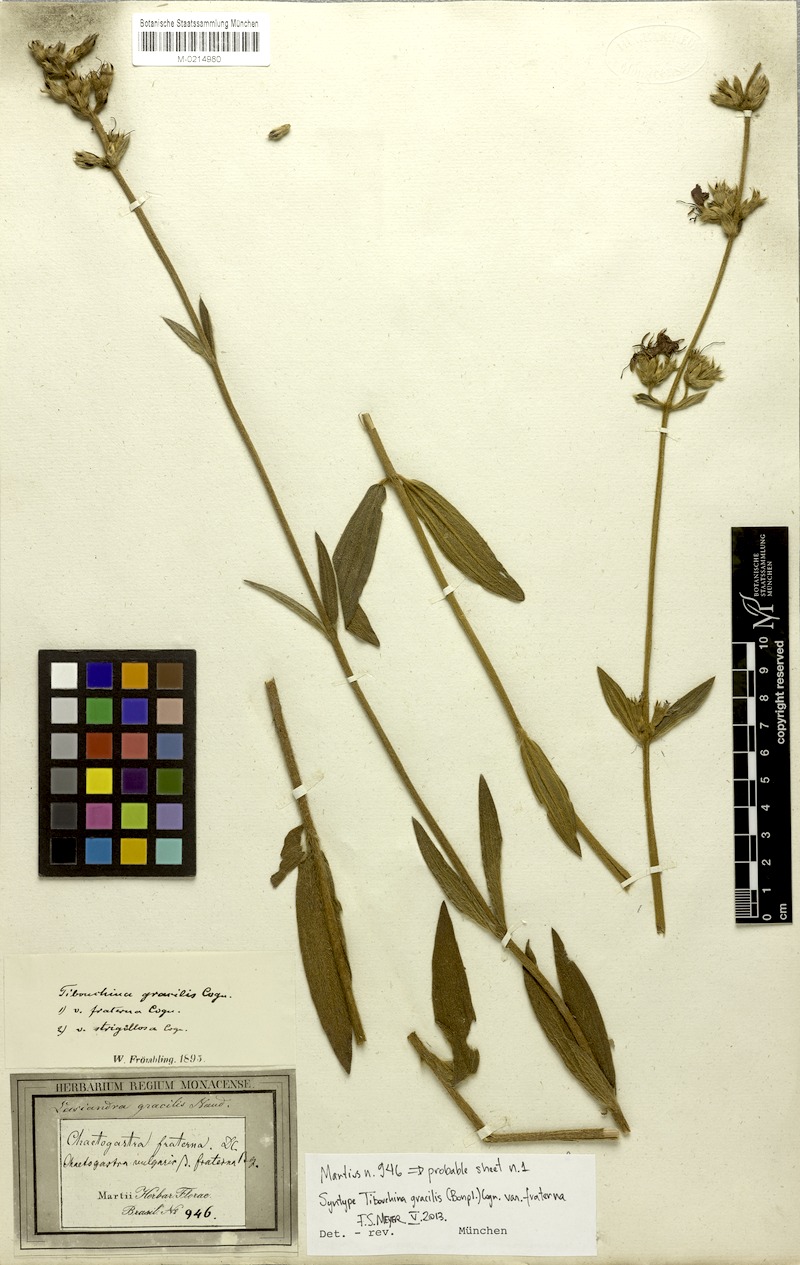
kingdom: Plantae
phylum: Tracheophyta
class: Magnoliopsida
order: Myrtales
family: Melastomataceae
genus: Chaetogastra
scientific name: Chaetogastra gracilis
